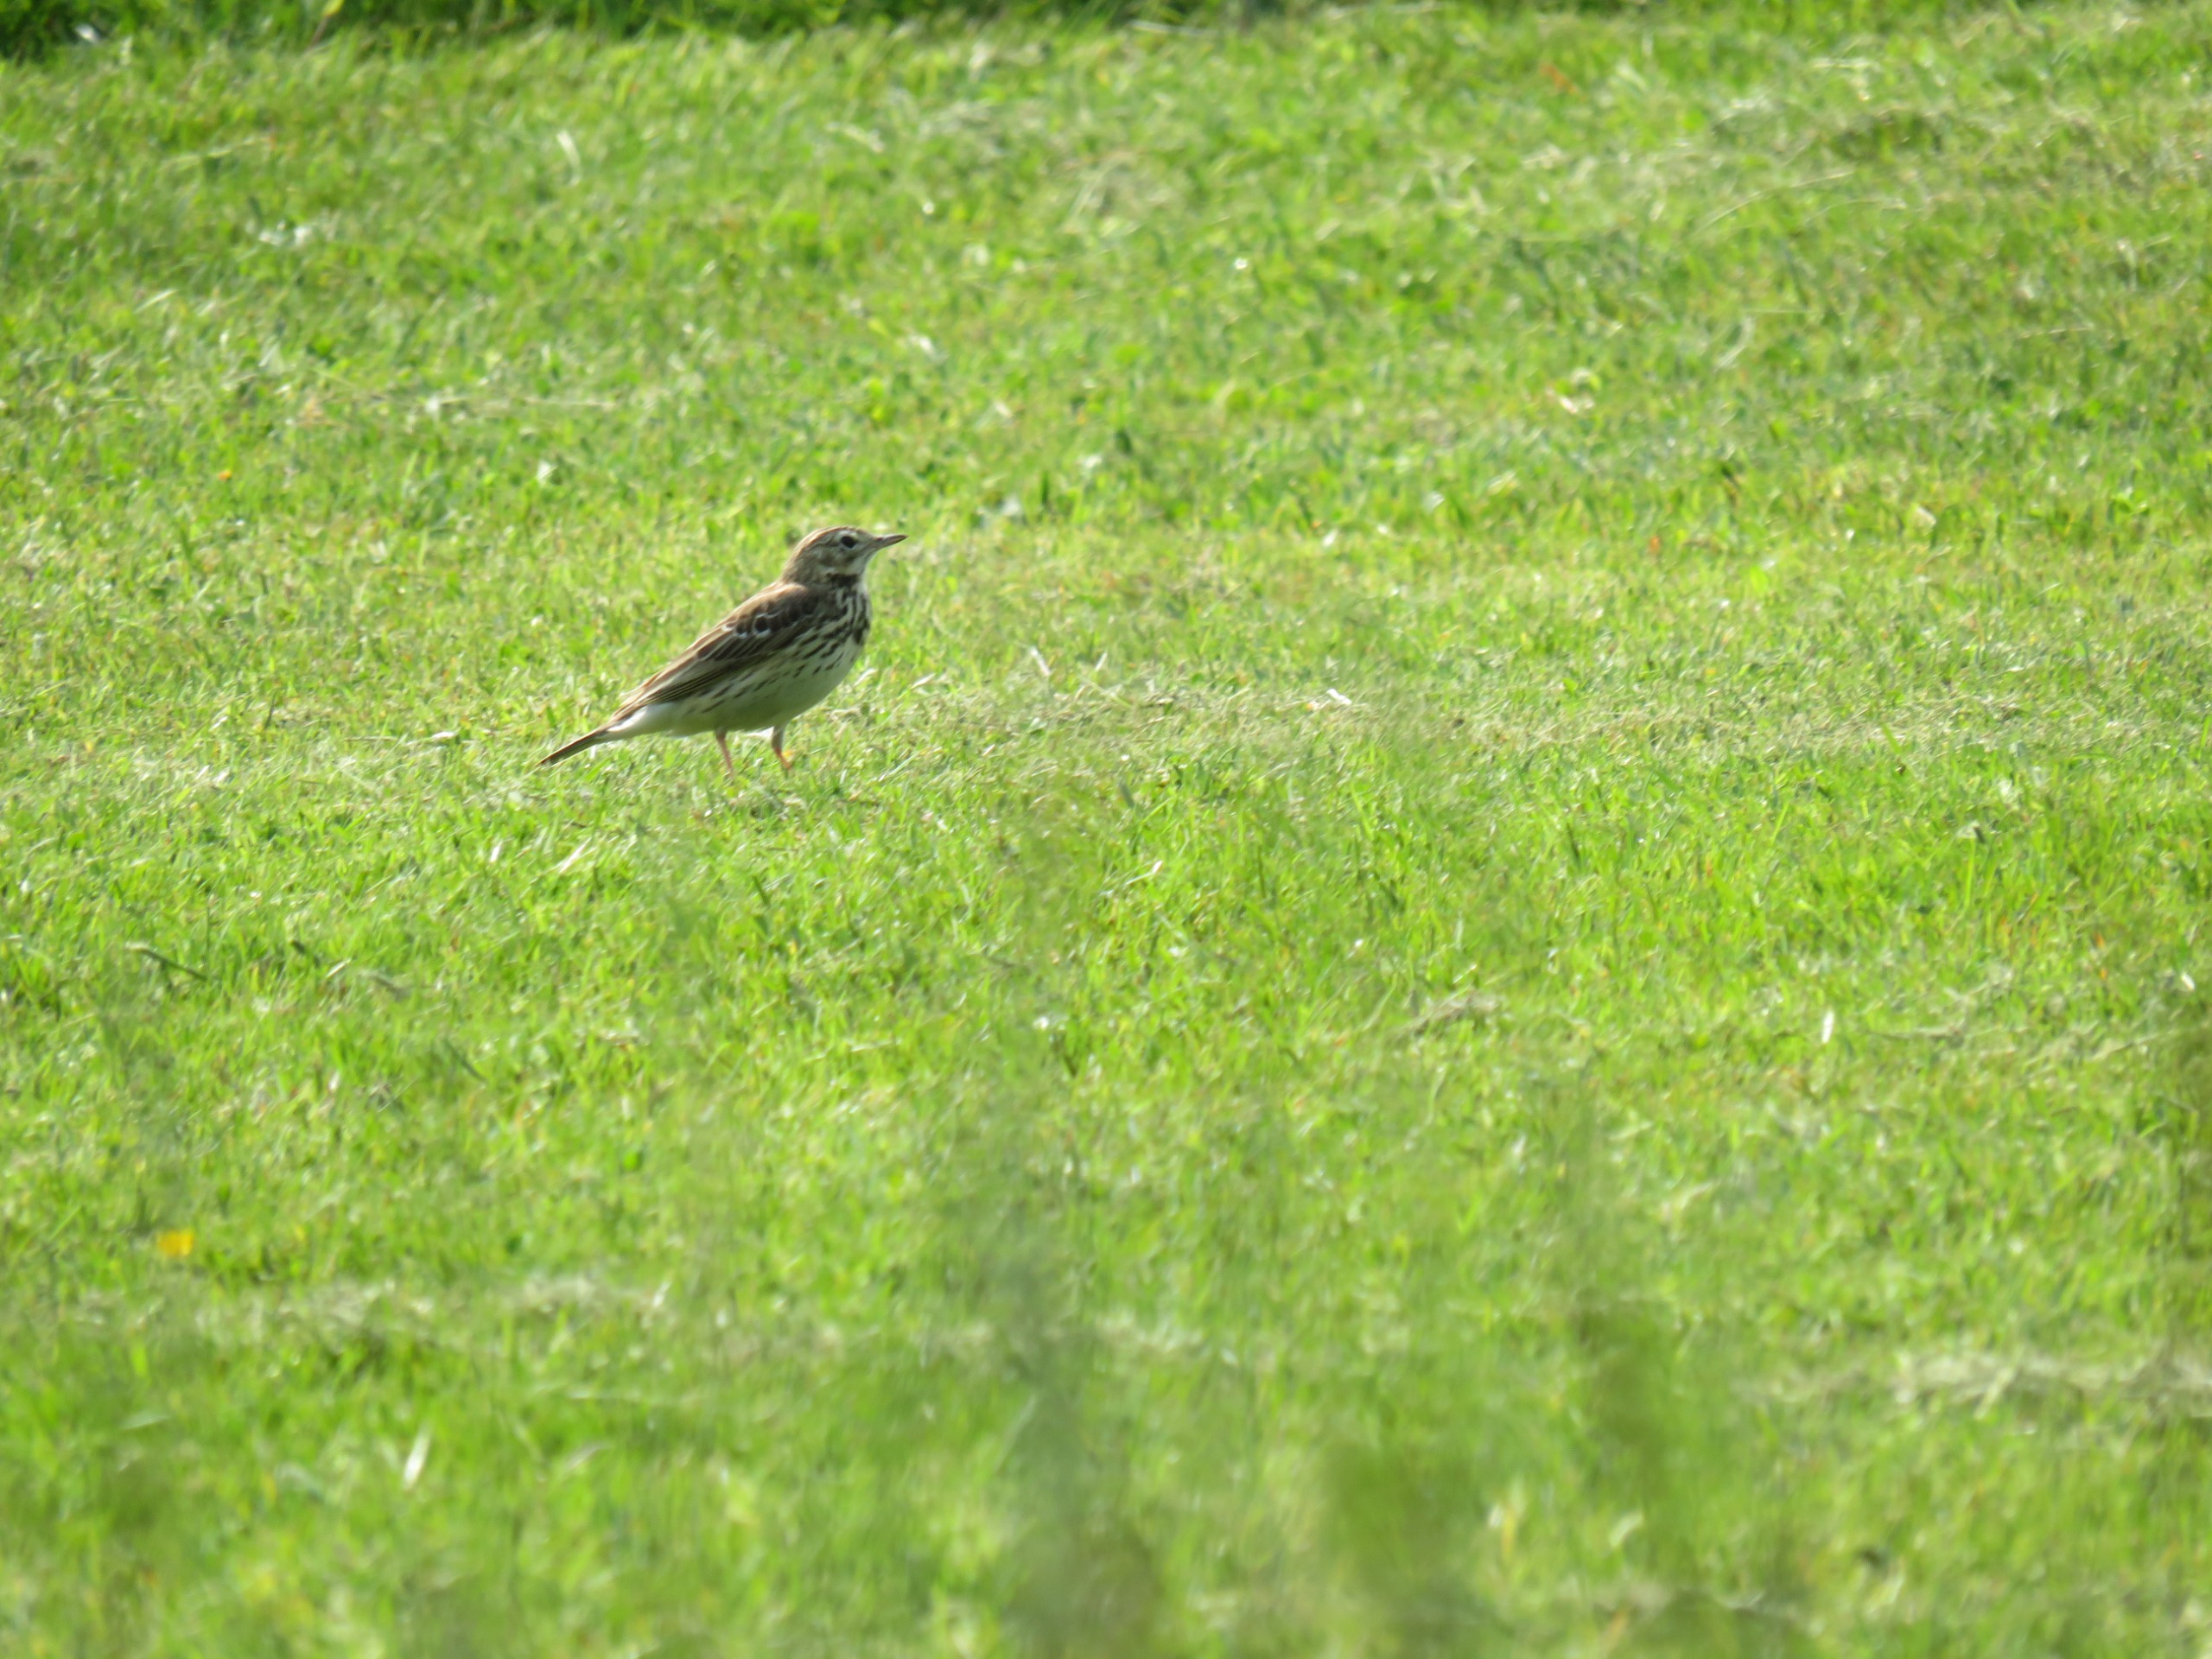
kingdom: Animalia
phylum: Chordata
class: Aves
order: Passeriformes
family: Motacillidae
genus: Anthus
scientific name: Anthus pratensis
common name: Engpiber
